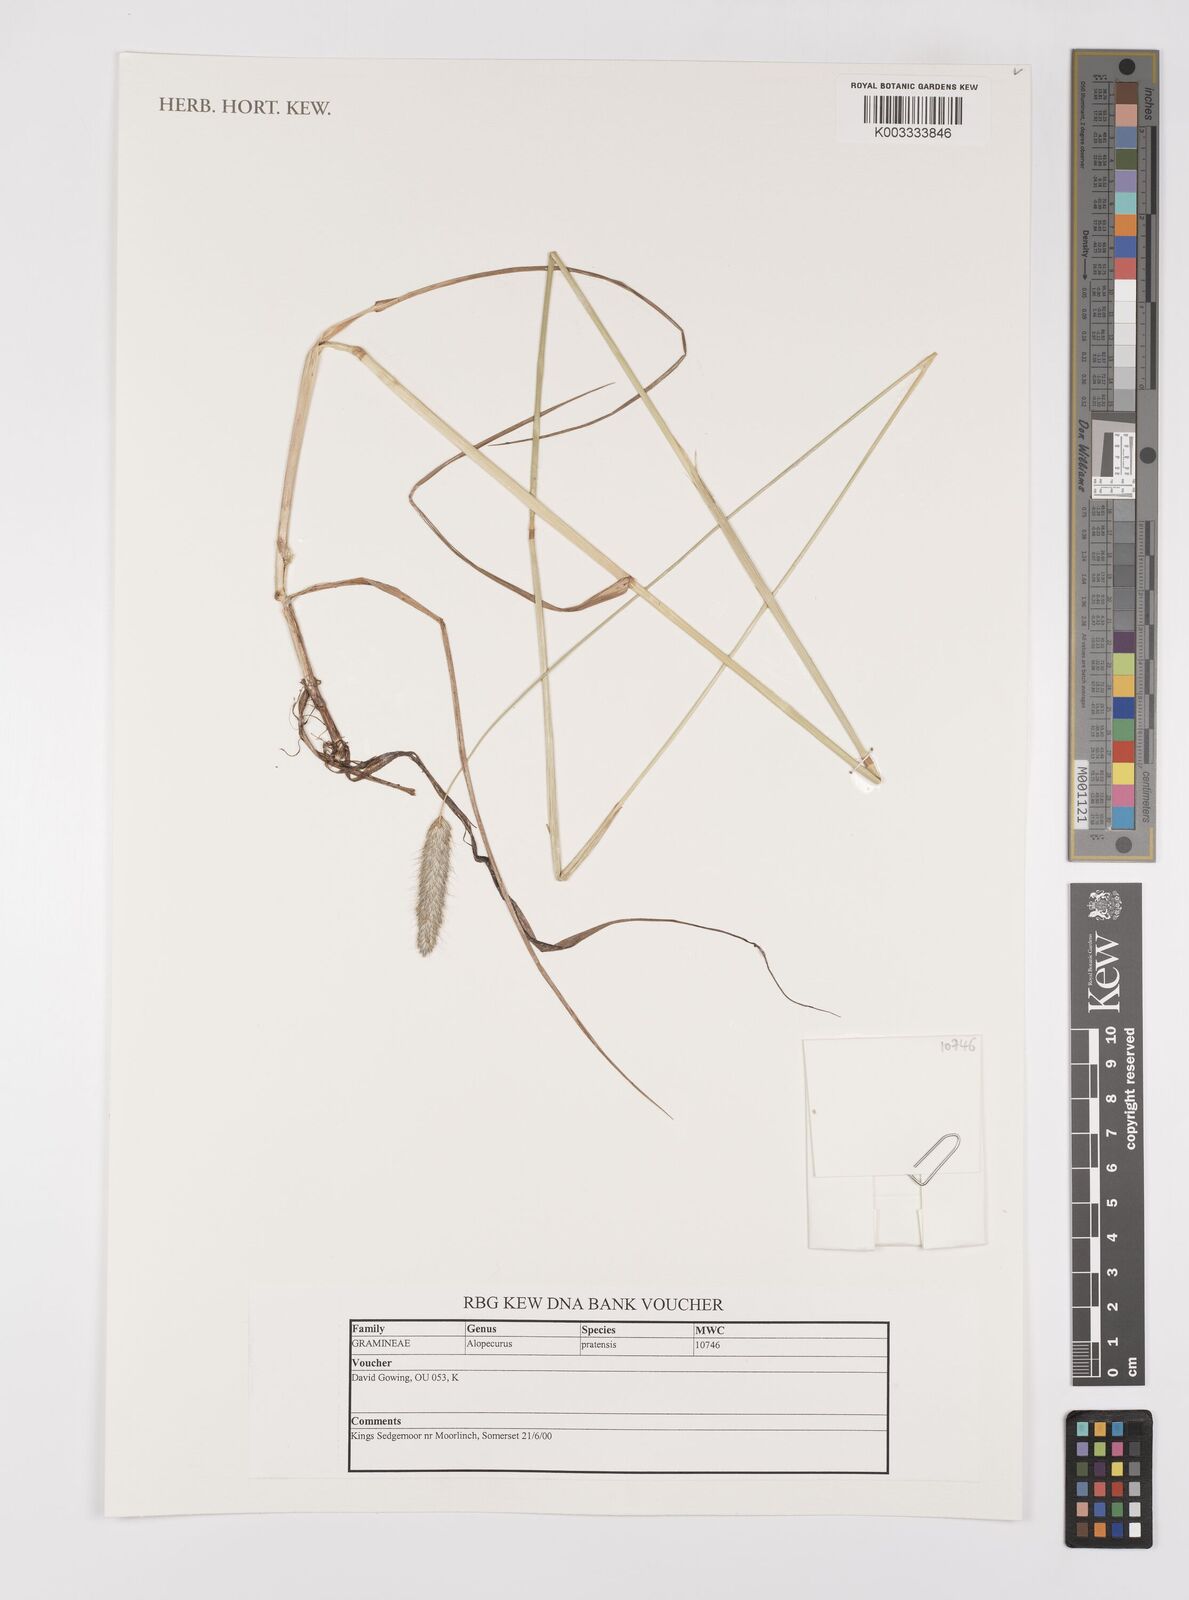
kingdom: Plantae
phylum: Tracheophyta
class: Liliopsida
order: Poales
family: Poaceae
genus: Alopecurus
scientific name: Alopecurus pratensis
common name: Meadow foxtail
